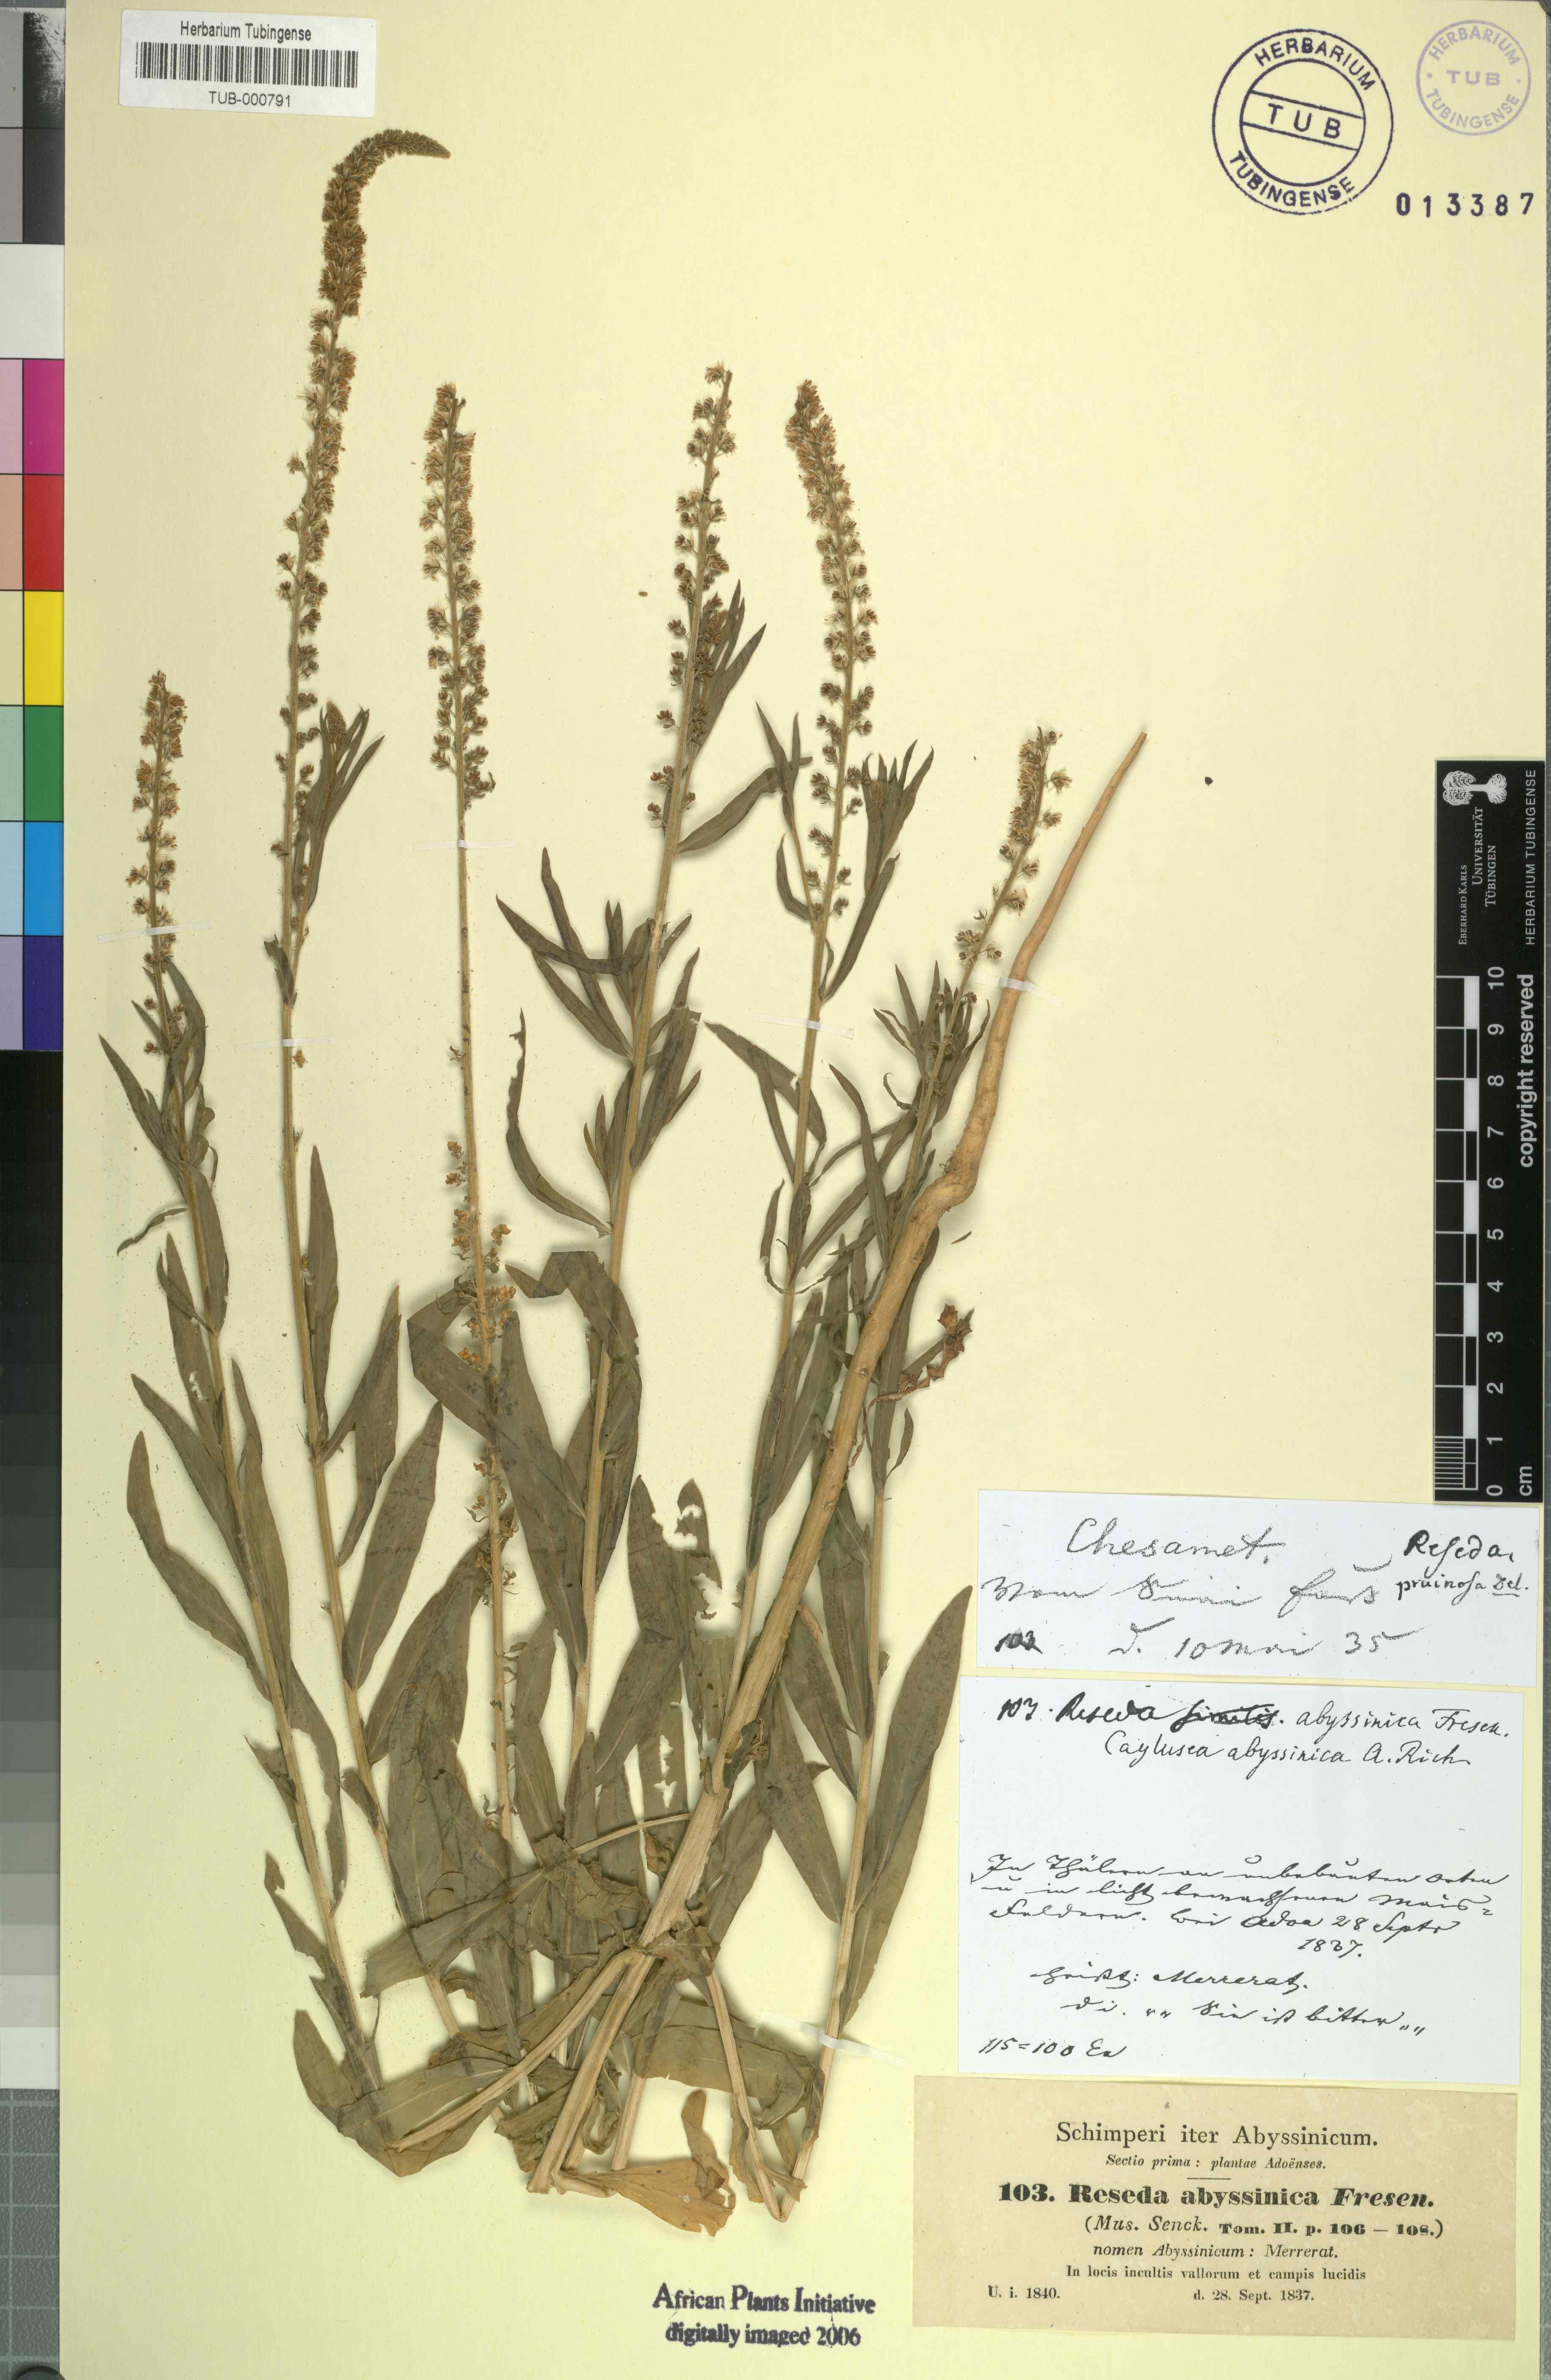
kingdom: Plantae
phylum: Tracheophyta
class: Magnoliopsida
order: Brassicales
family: Resedaceae
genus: Reseda
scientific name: Reseda pruinosa
